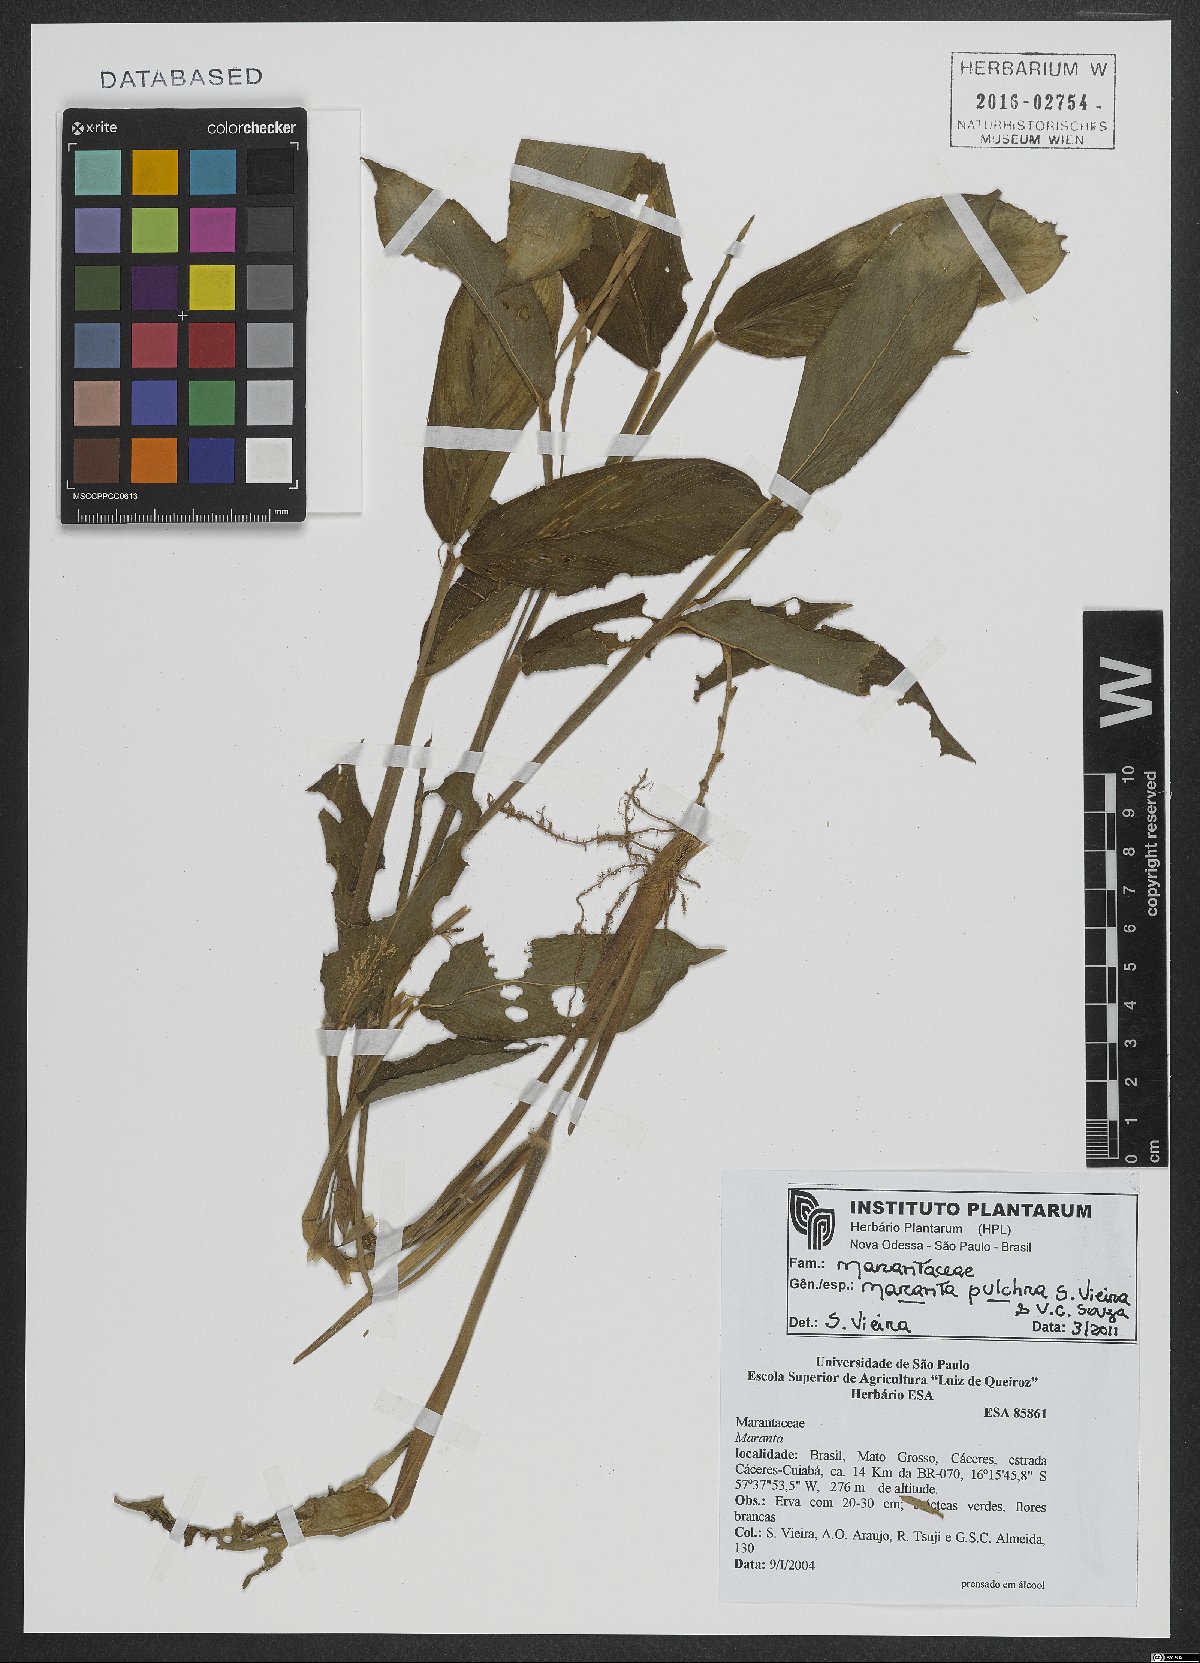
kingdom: Plantae
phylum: Tracheophyta
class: Liliopsida
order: Zingiberales
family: Marantaceae
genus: Maranta
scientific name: Maranta pulchra
